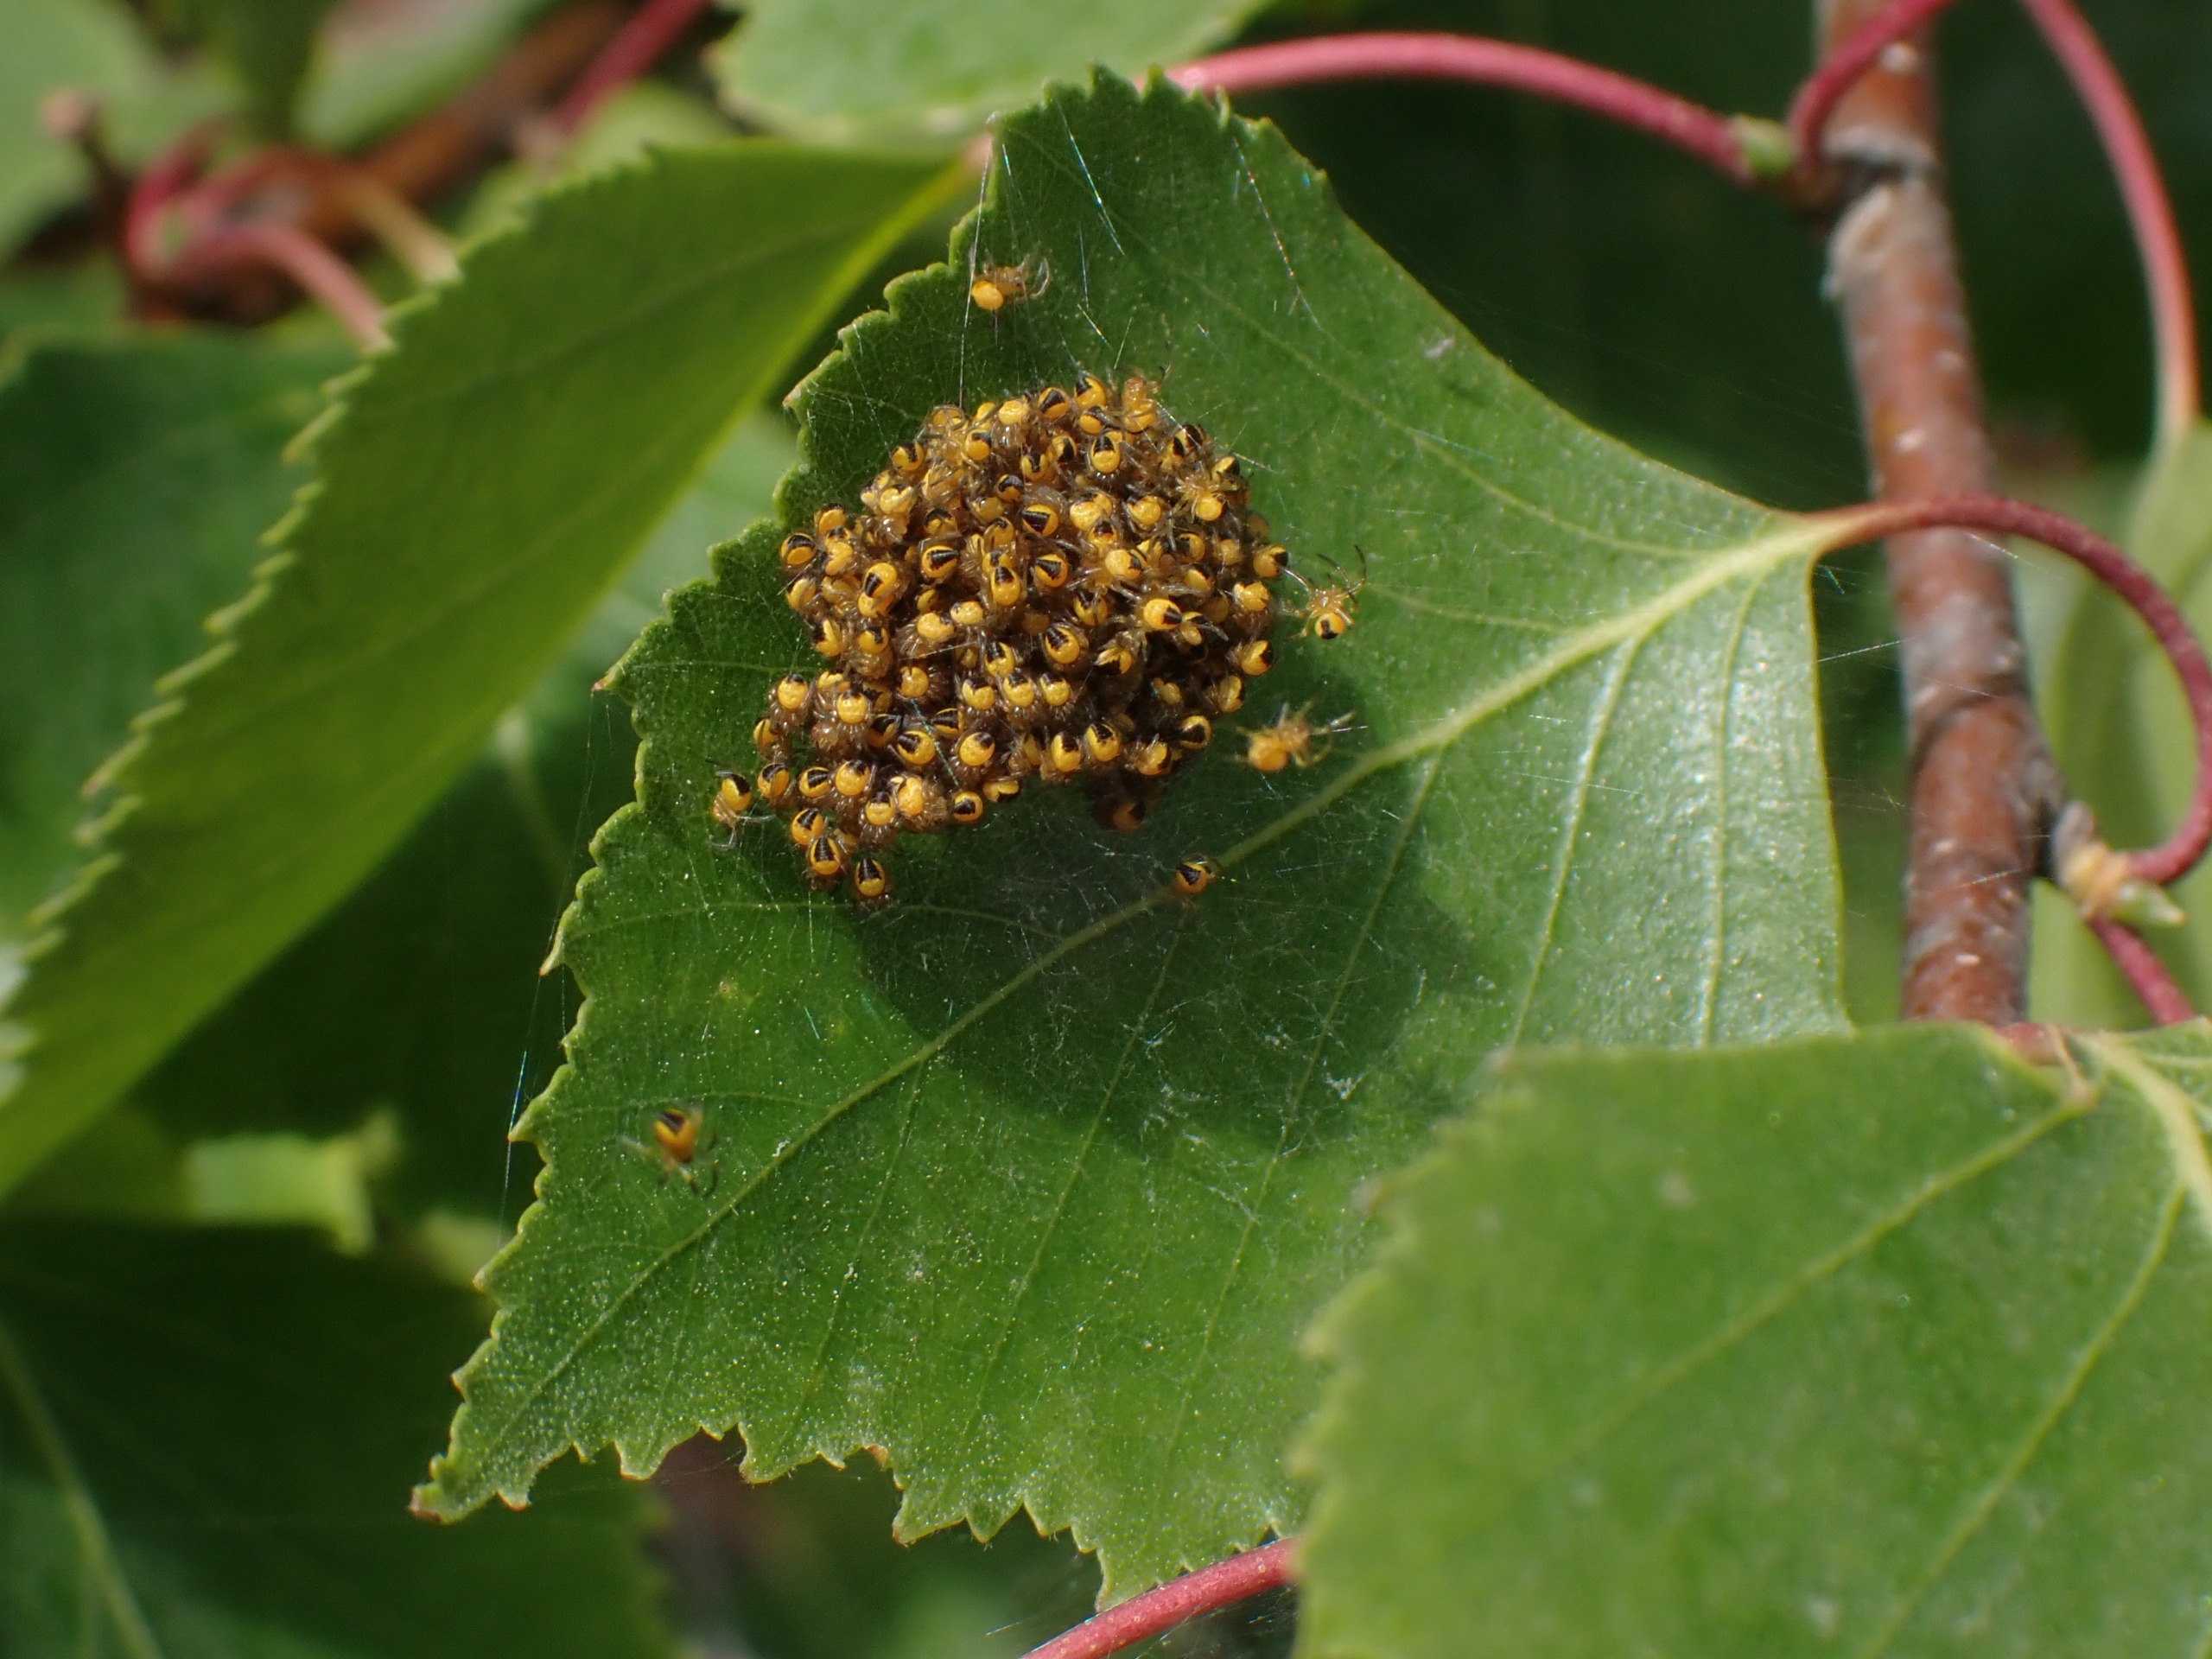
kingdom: Animalia
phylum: Arthropoda
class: Arachnida
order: Araneae
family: Araneidae
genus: Araneus
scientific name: Araneus diadematus
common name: Korsedderkop
